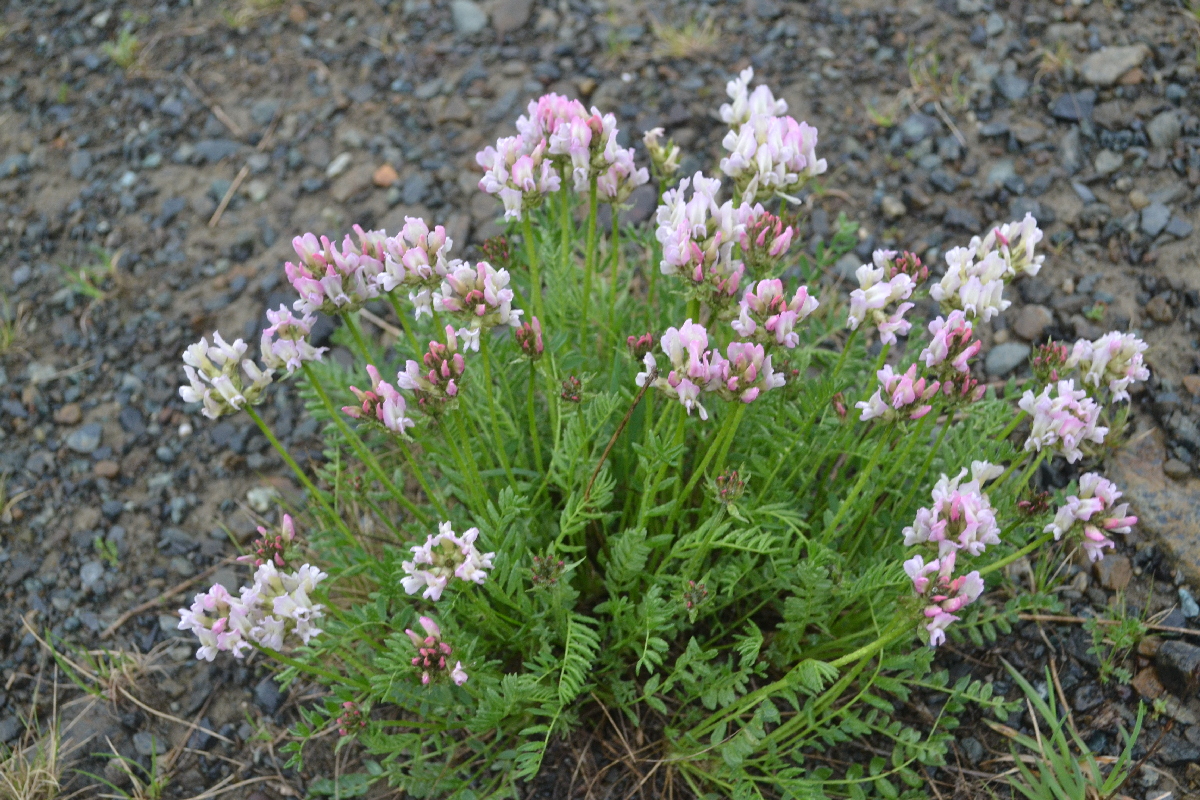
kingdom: Plantae
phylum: Tracheophyta
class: Magnoliopsida
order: Fabales
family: Fabaceae
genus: Oxytropis
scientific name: Oxytropis sordida
